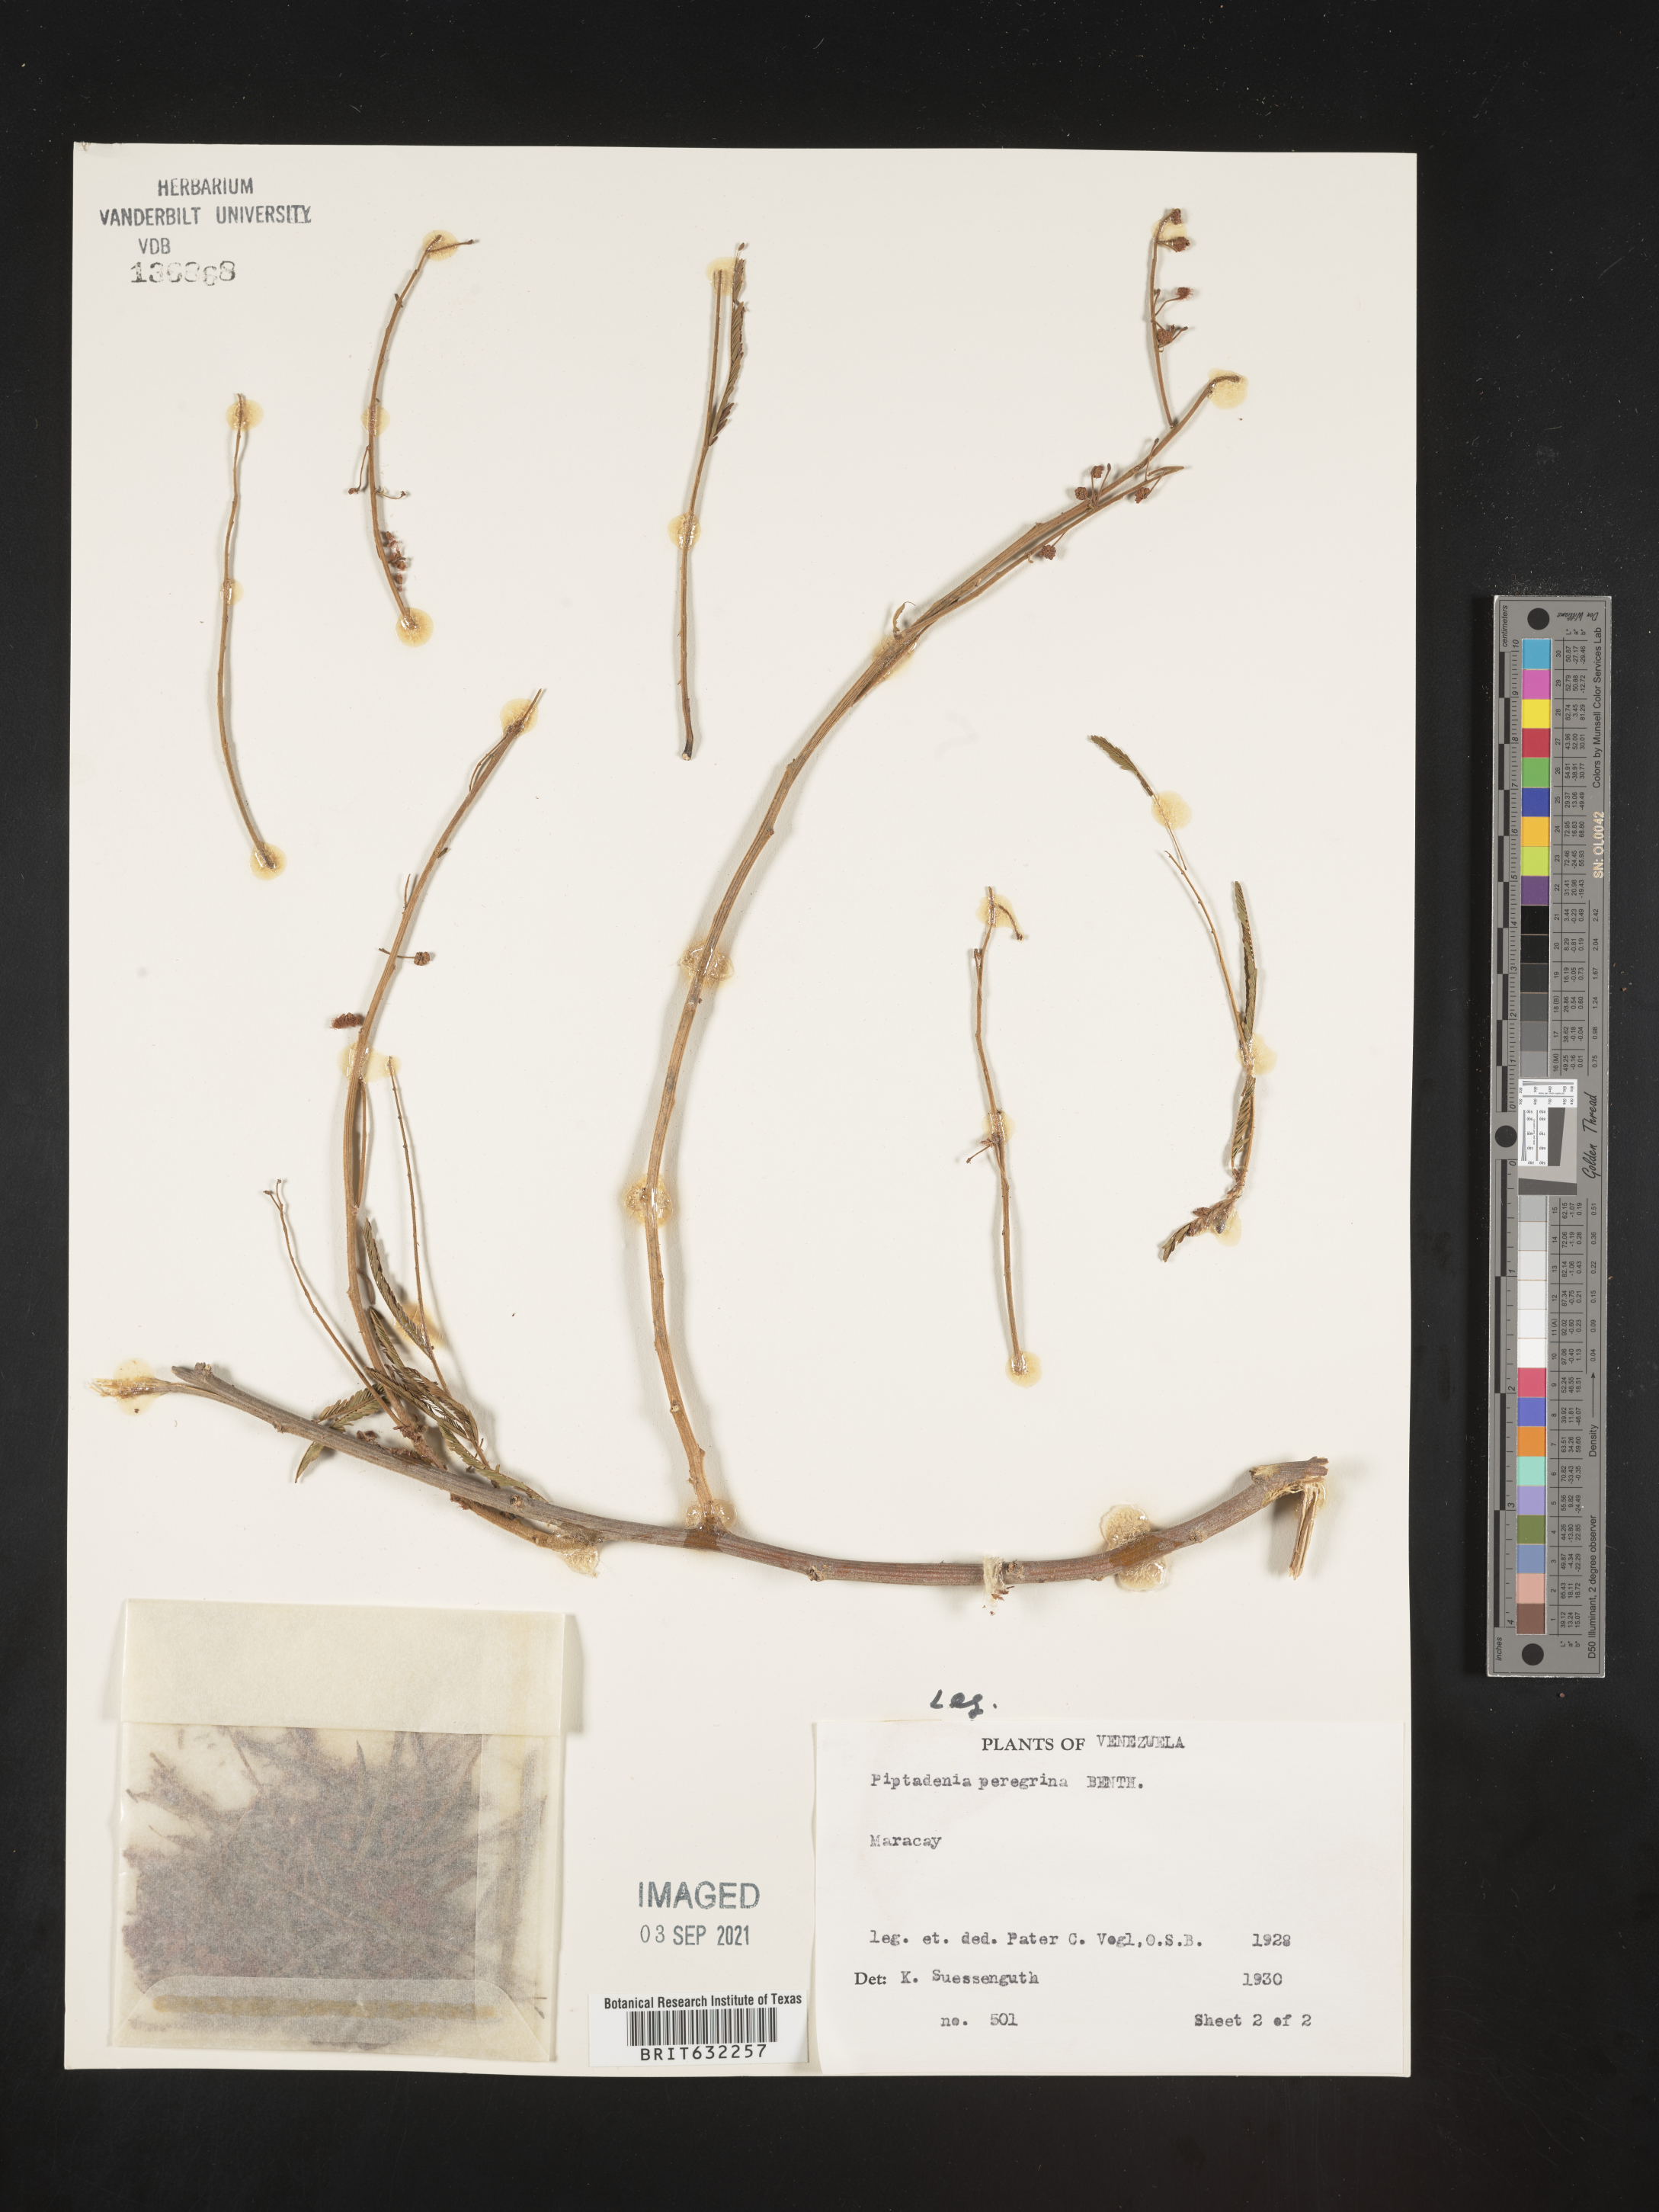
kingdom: Plantae
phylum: Tracheophyta
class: Magnoliopsida
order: Fabales
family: Fabaceae
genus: Piptadenia
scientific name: Piptadenia
